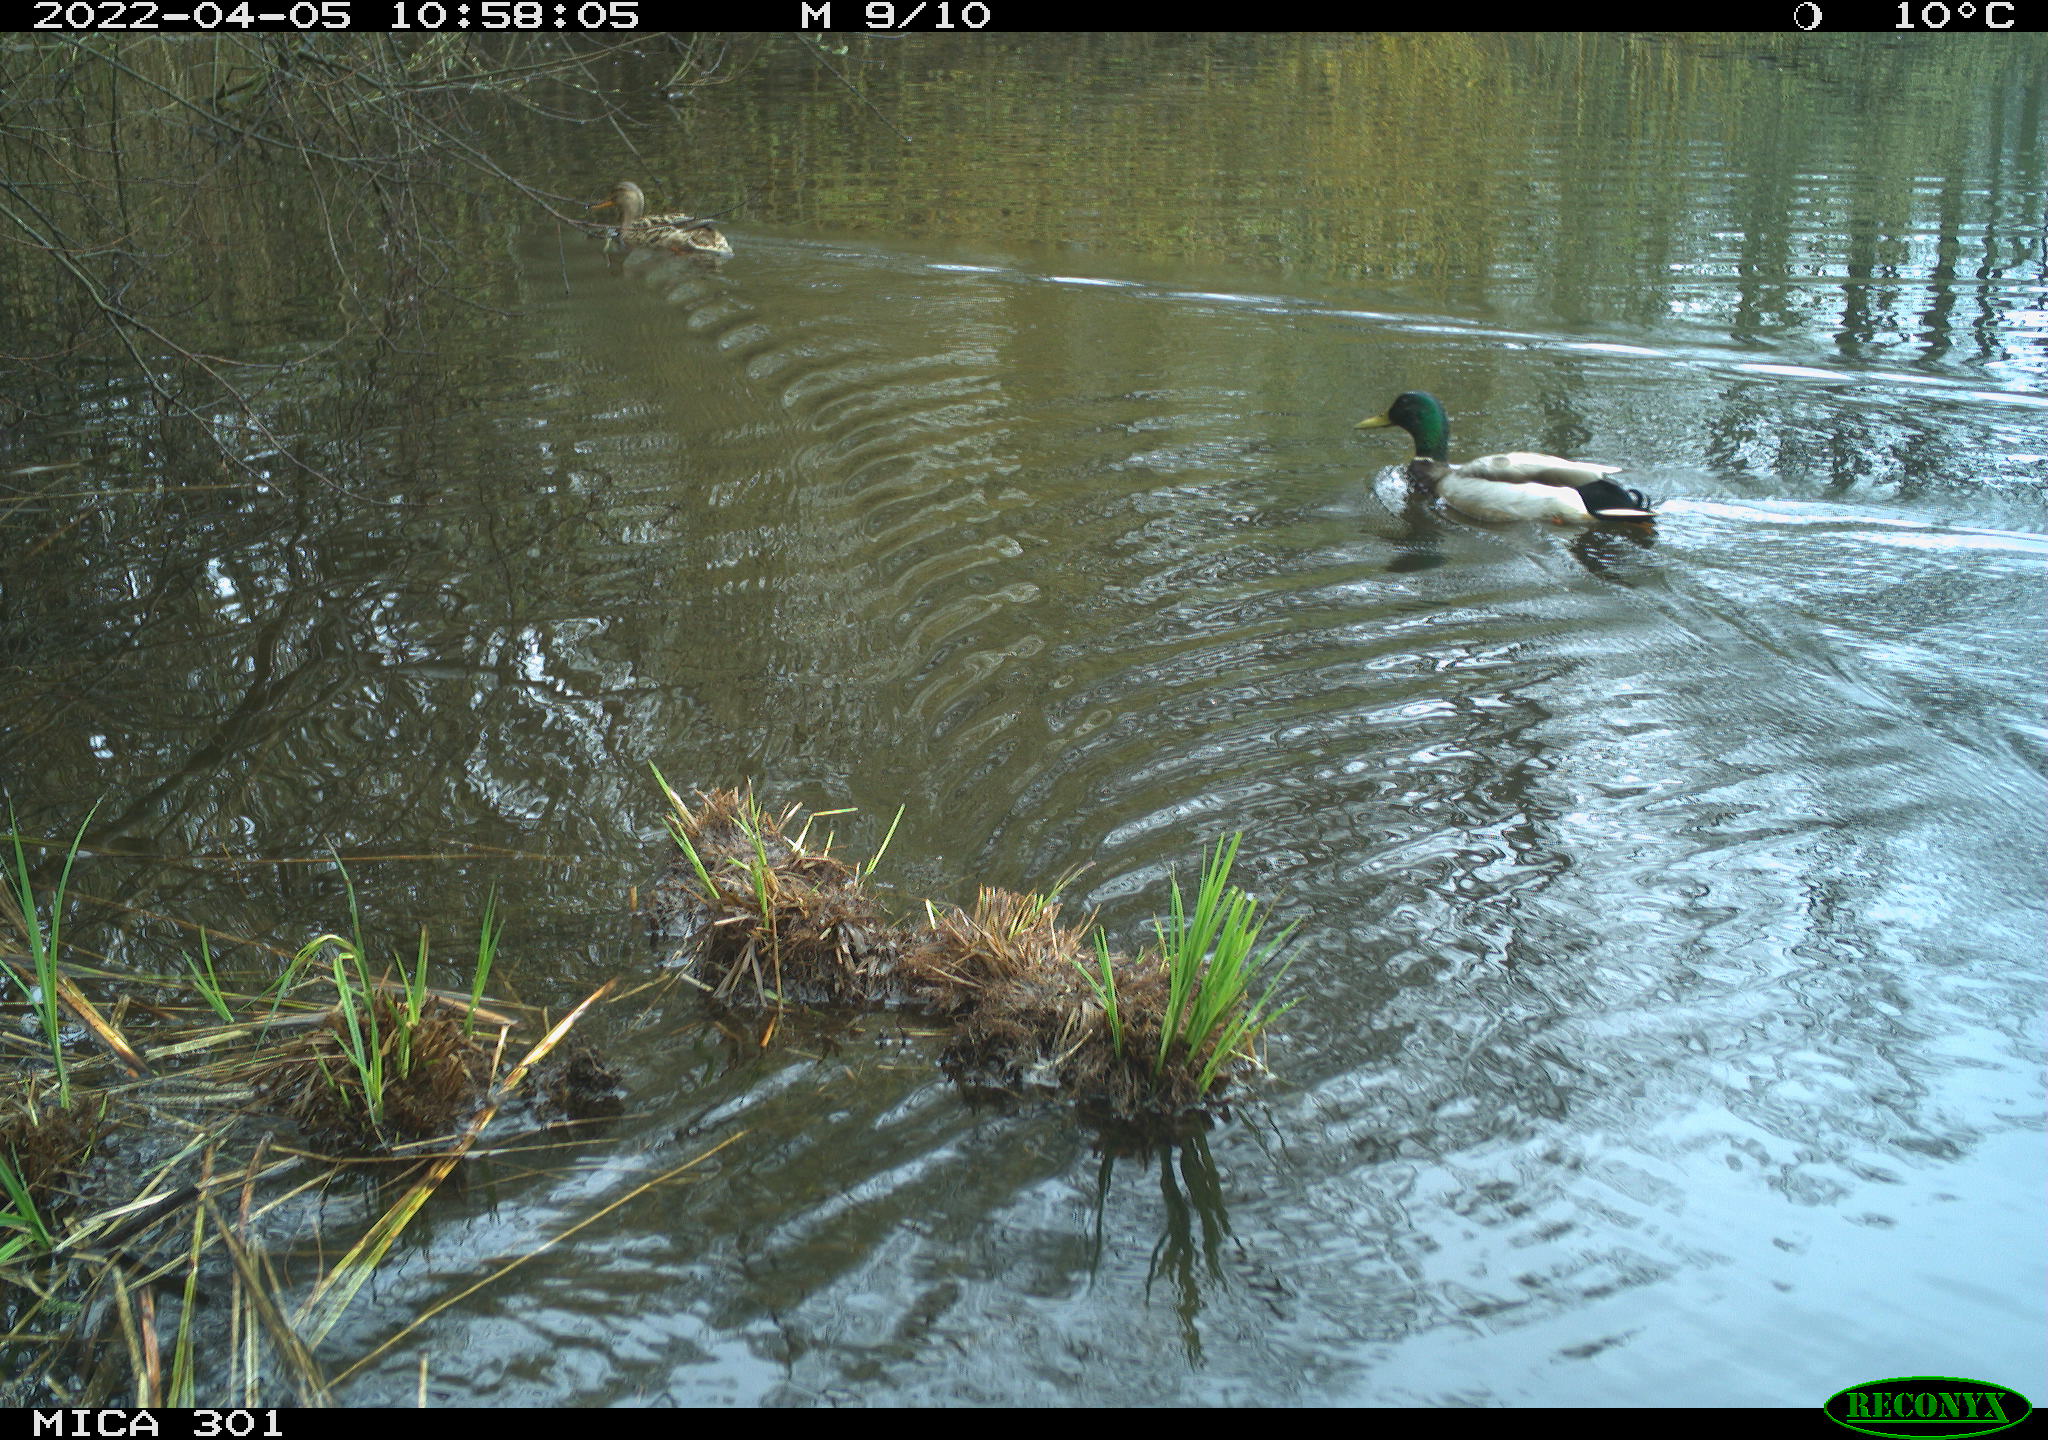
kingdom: Animalia
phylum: Chordata
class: Aves
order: Anseriformes
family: Anatidae
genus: Anas
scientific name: Anas platyrhynchos
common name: Mallard
